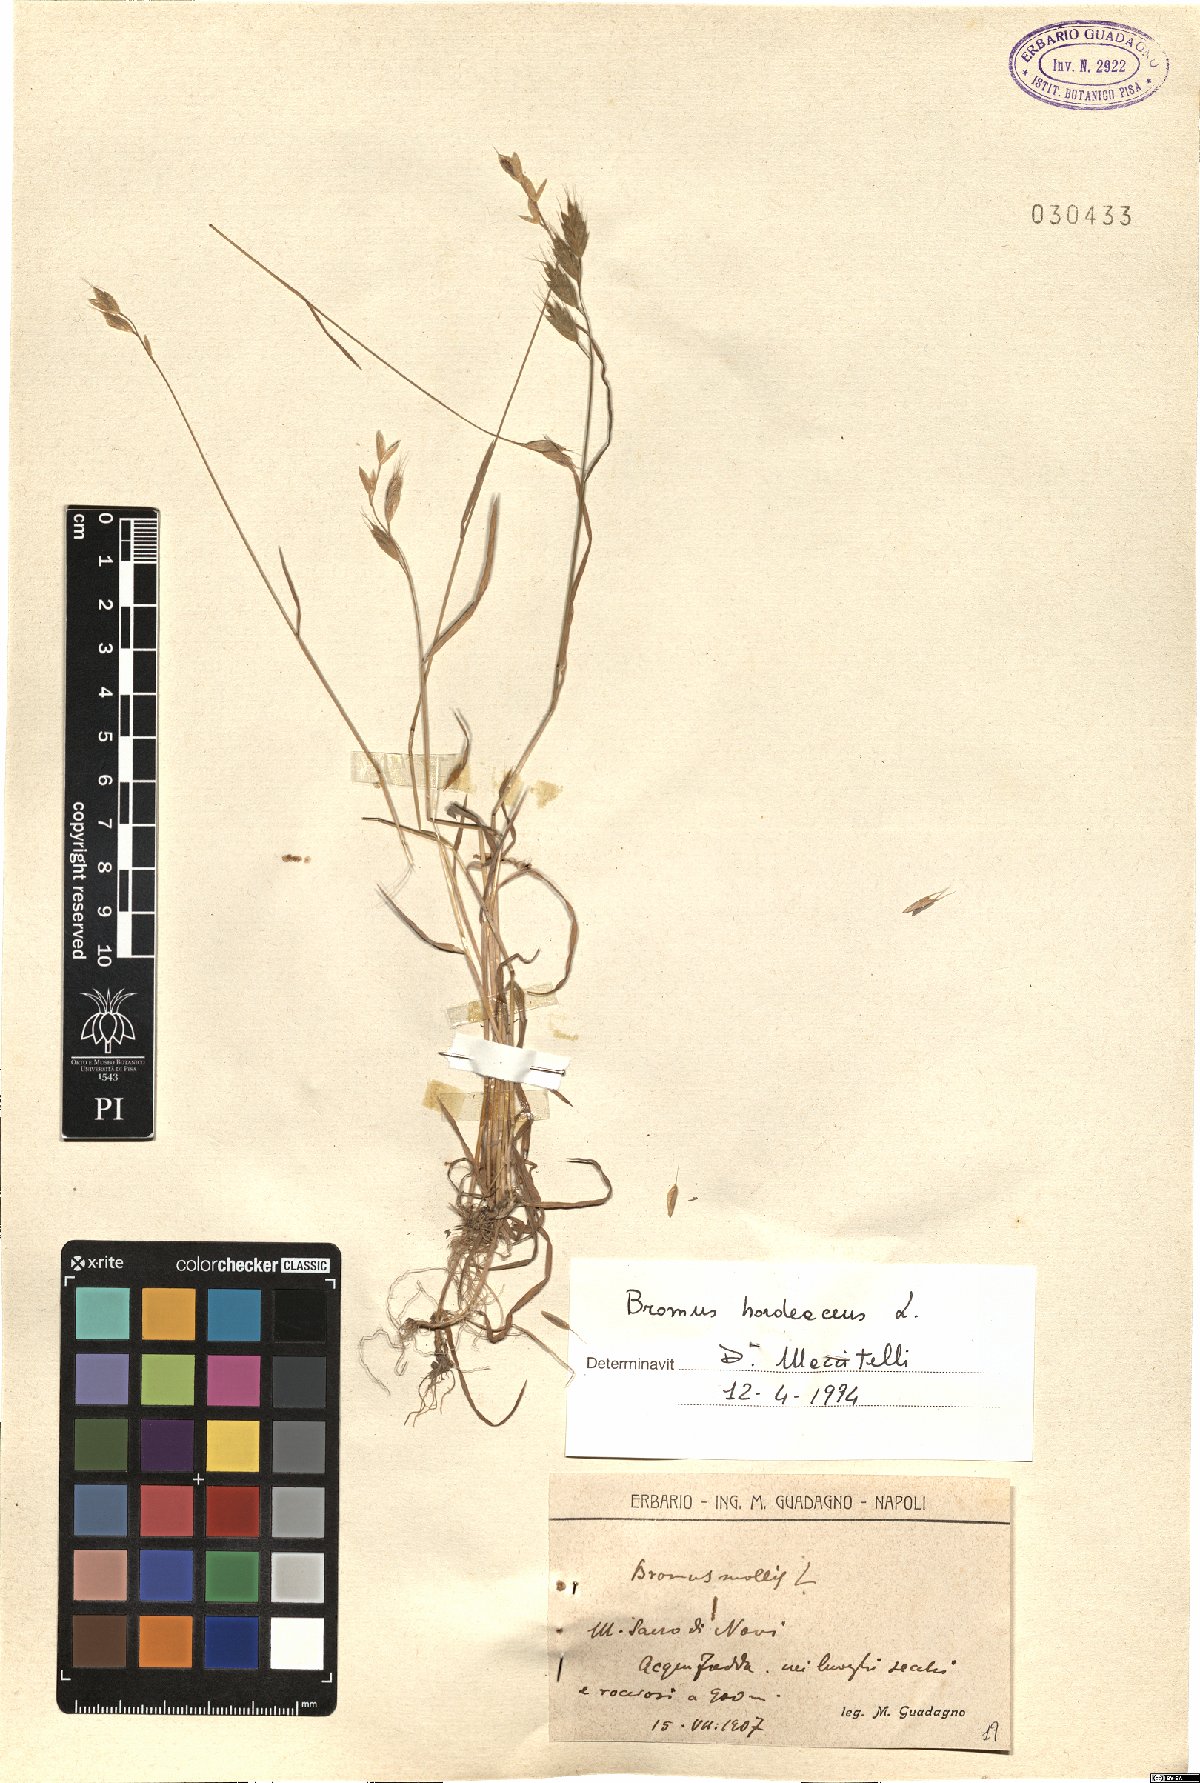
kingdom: Plantae
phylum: Tracheophyta
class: Liliopsida
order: Poales
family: Poaceae
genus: Bromus
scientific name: Bromus hordeaceus
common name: Soft brome
